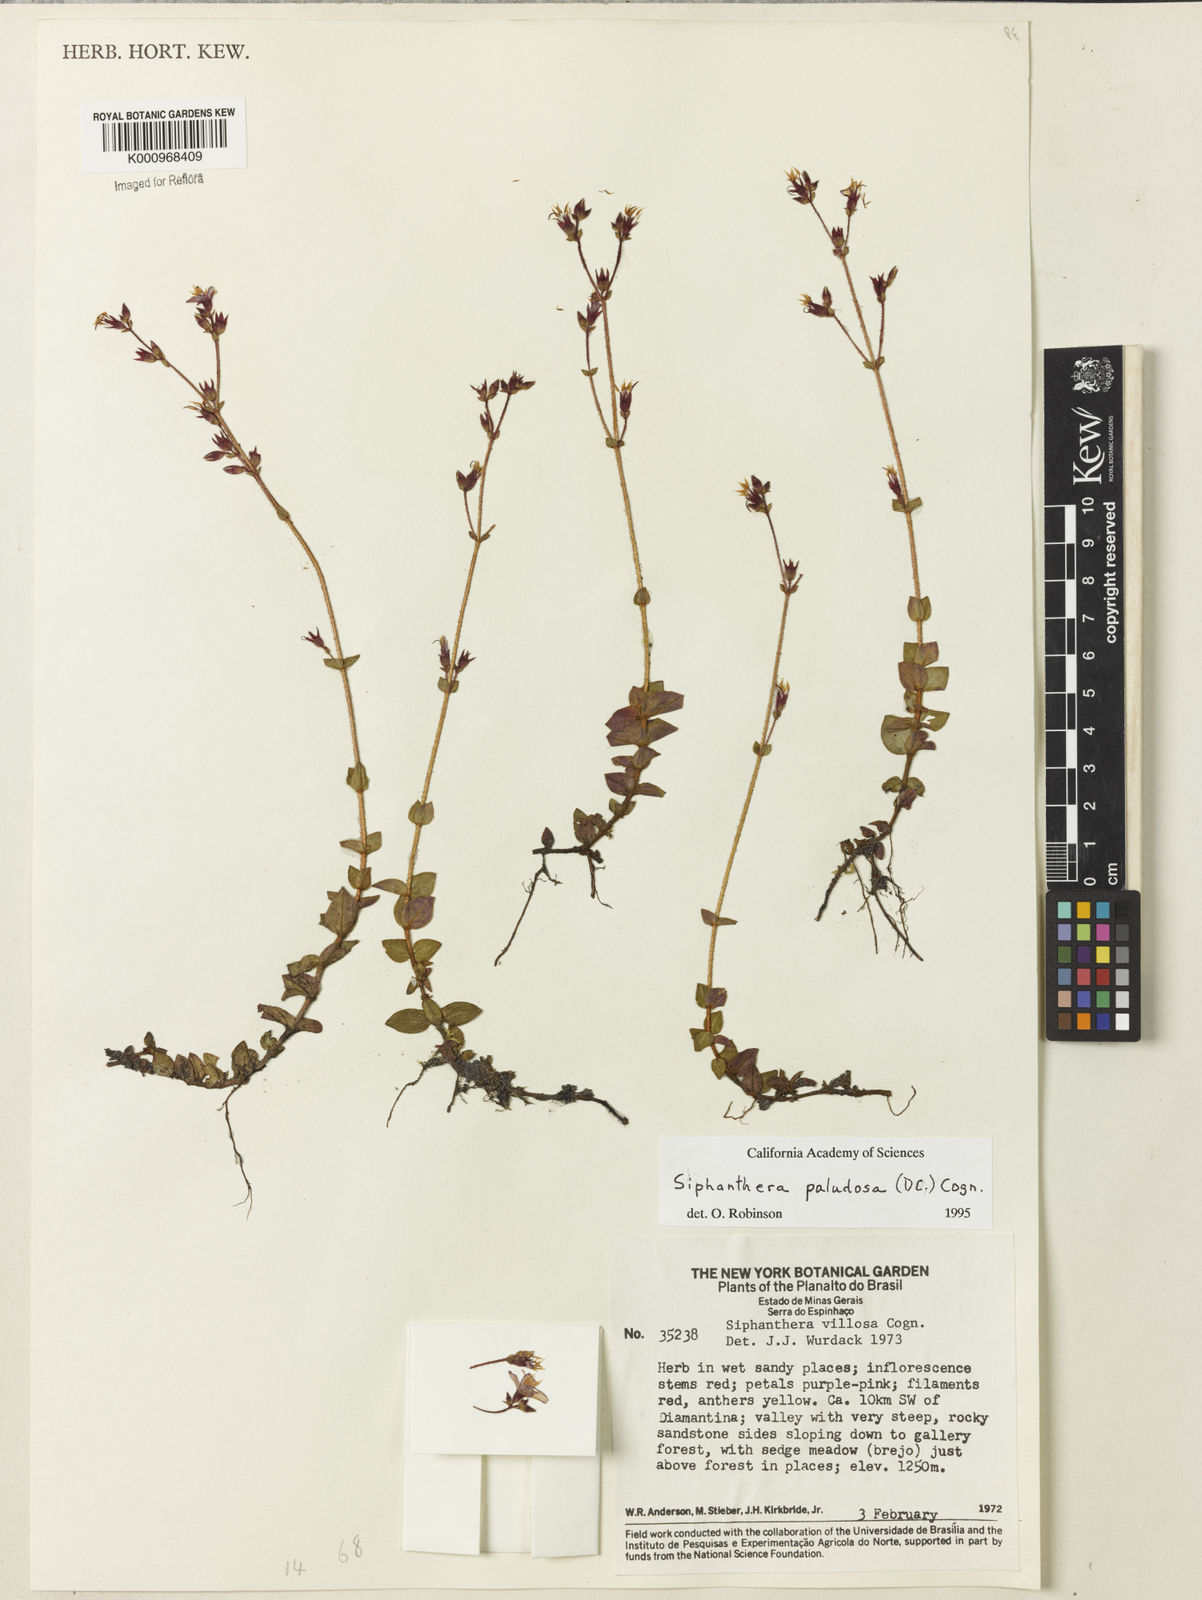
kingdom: Plantae
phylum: Tracheophyta
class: Magnoliopsida
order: Myrtales
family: Melastomataceae
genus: Siphanthera
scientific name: Siphanthera paludosa
